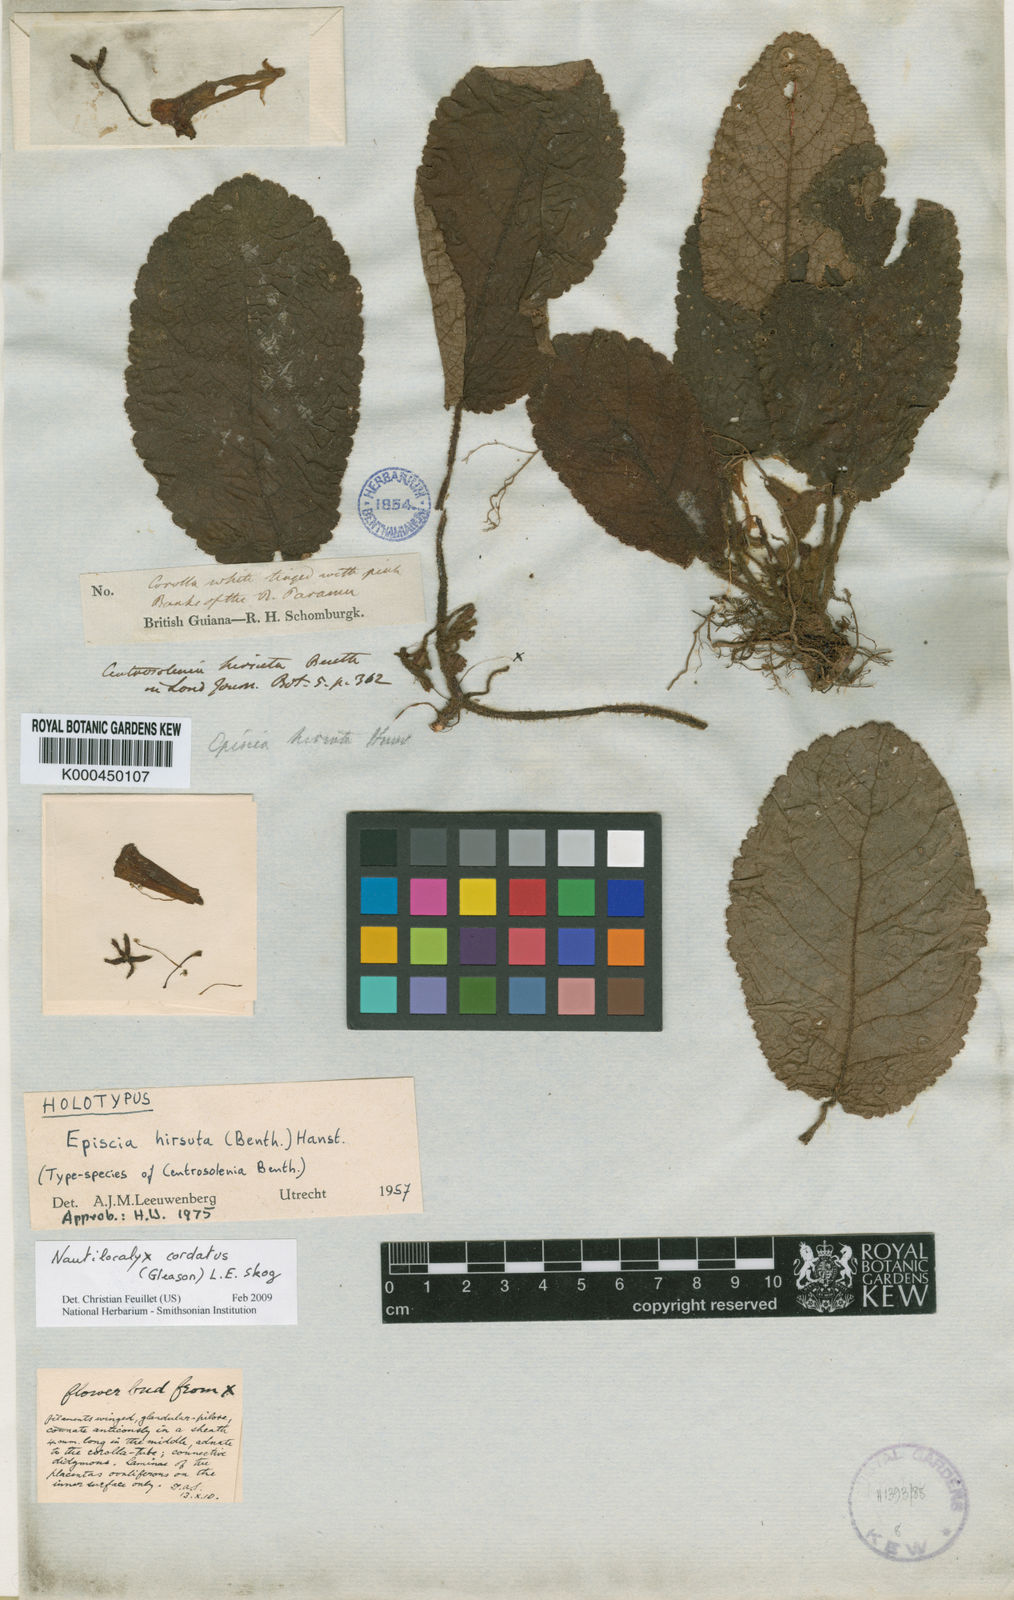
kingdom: Plantae
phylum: Tracheophyta
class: Magnoliopsida
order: Lamiales
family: Gesneriaceae
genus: Centrosolenia
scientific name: Centrosolenia hirsuta
